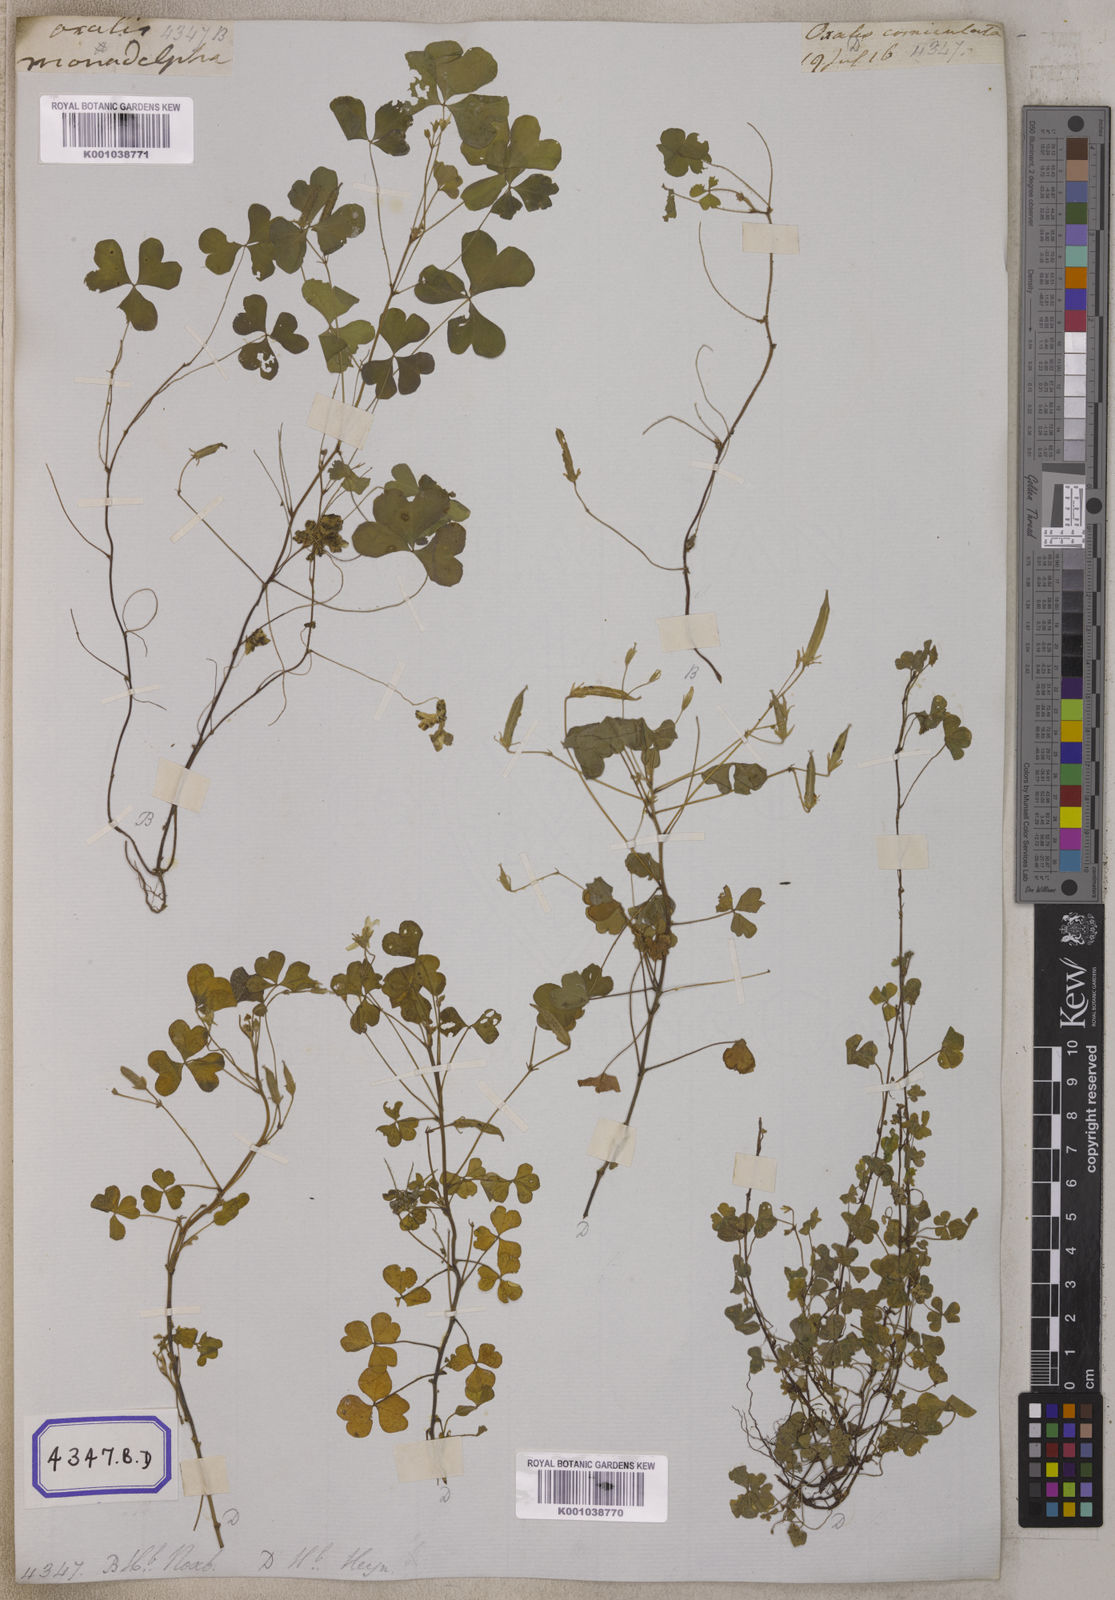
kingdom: Plantae
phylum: Tracheophyta
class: Magnoliopsida
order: Oxalidales
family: Oxalidaceae
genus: Oxalis
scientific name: Oxalis corniculata
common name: Procumbent yellow-sorrel
